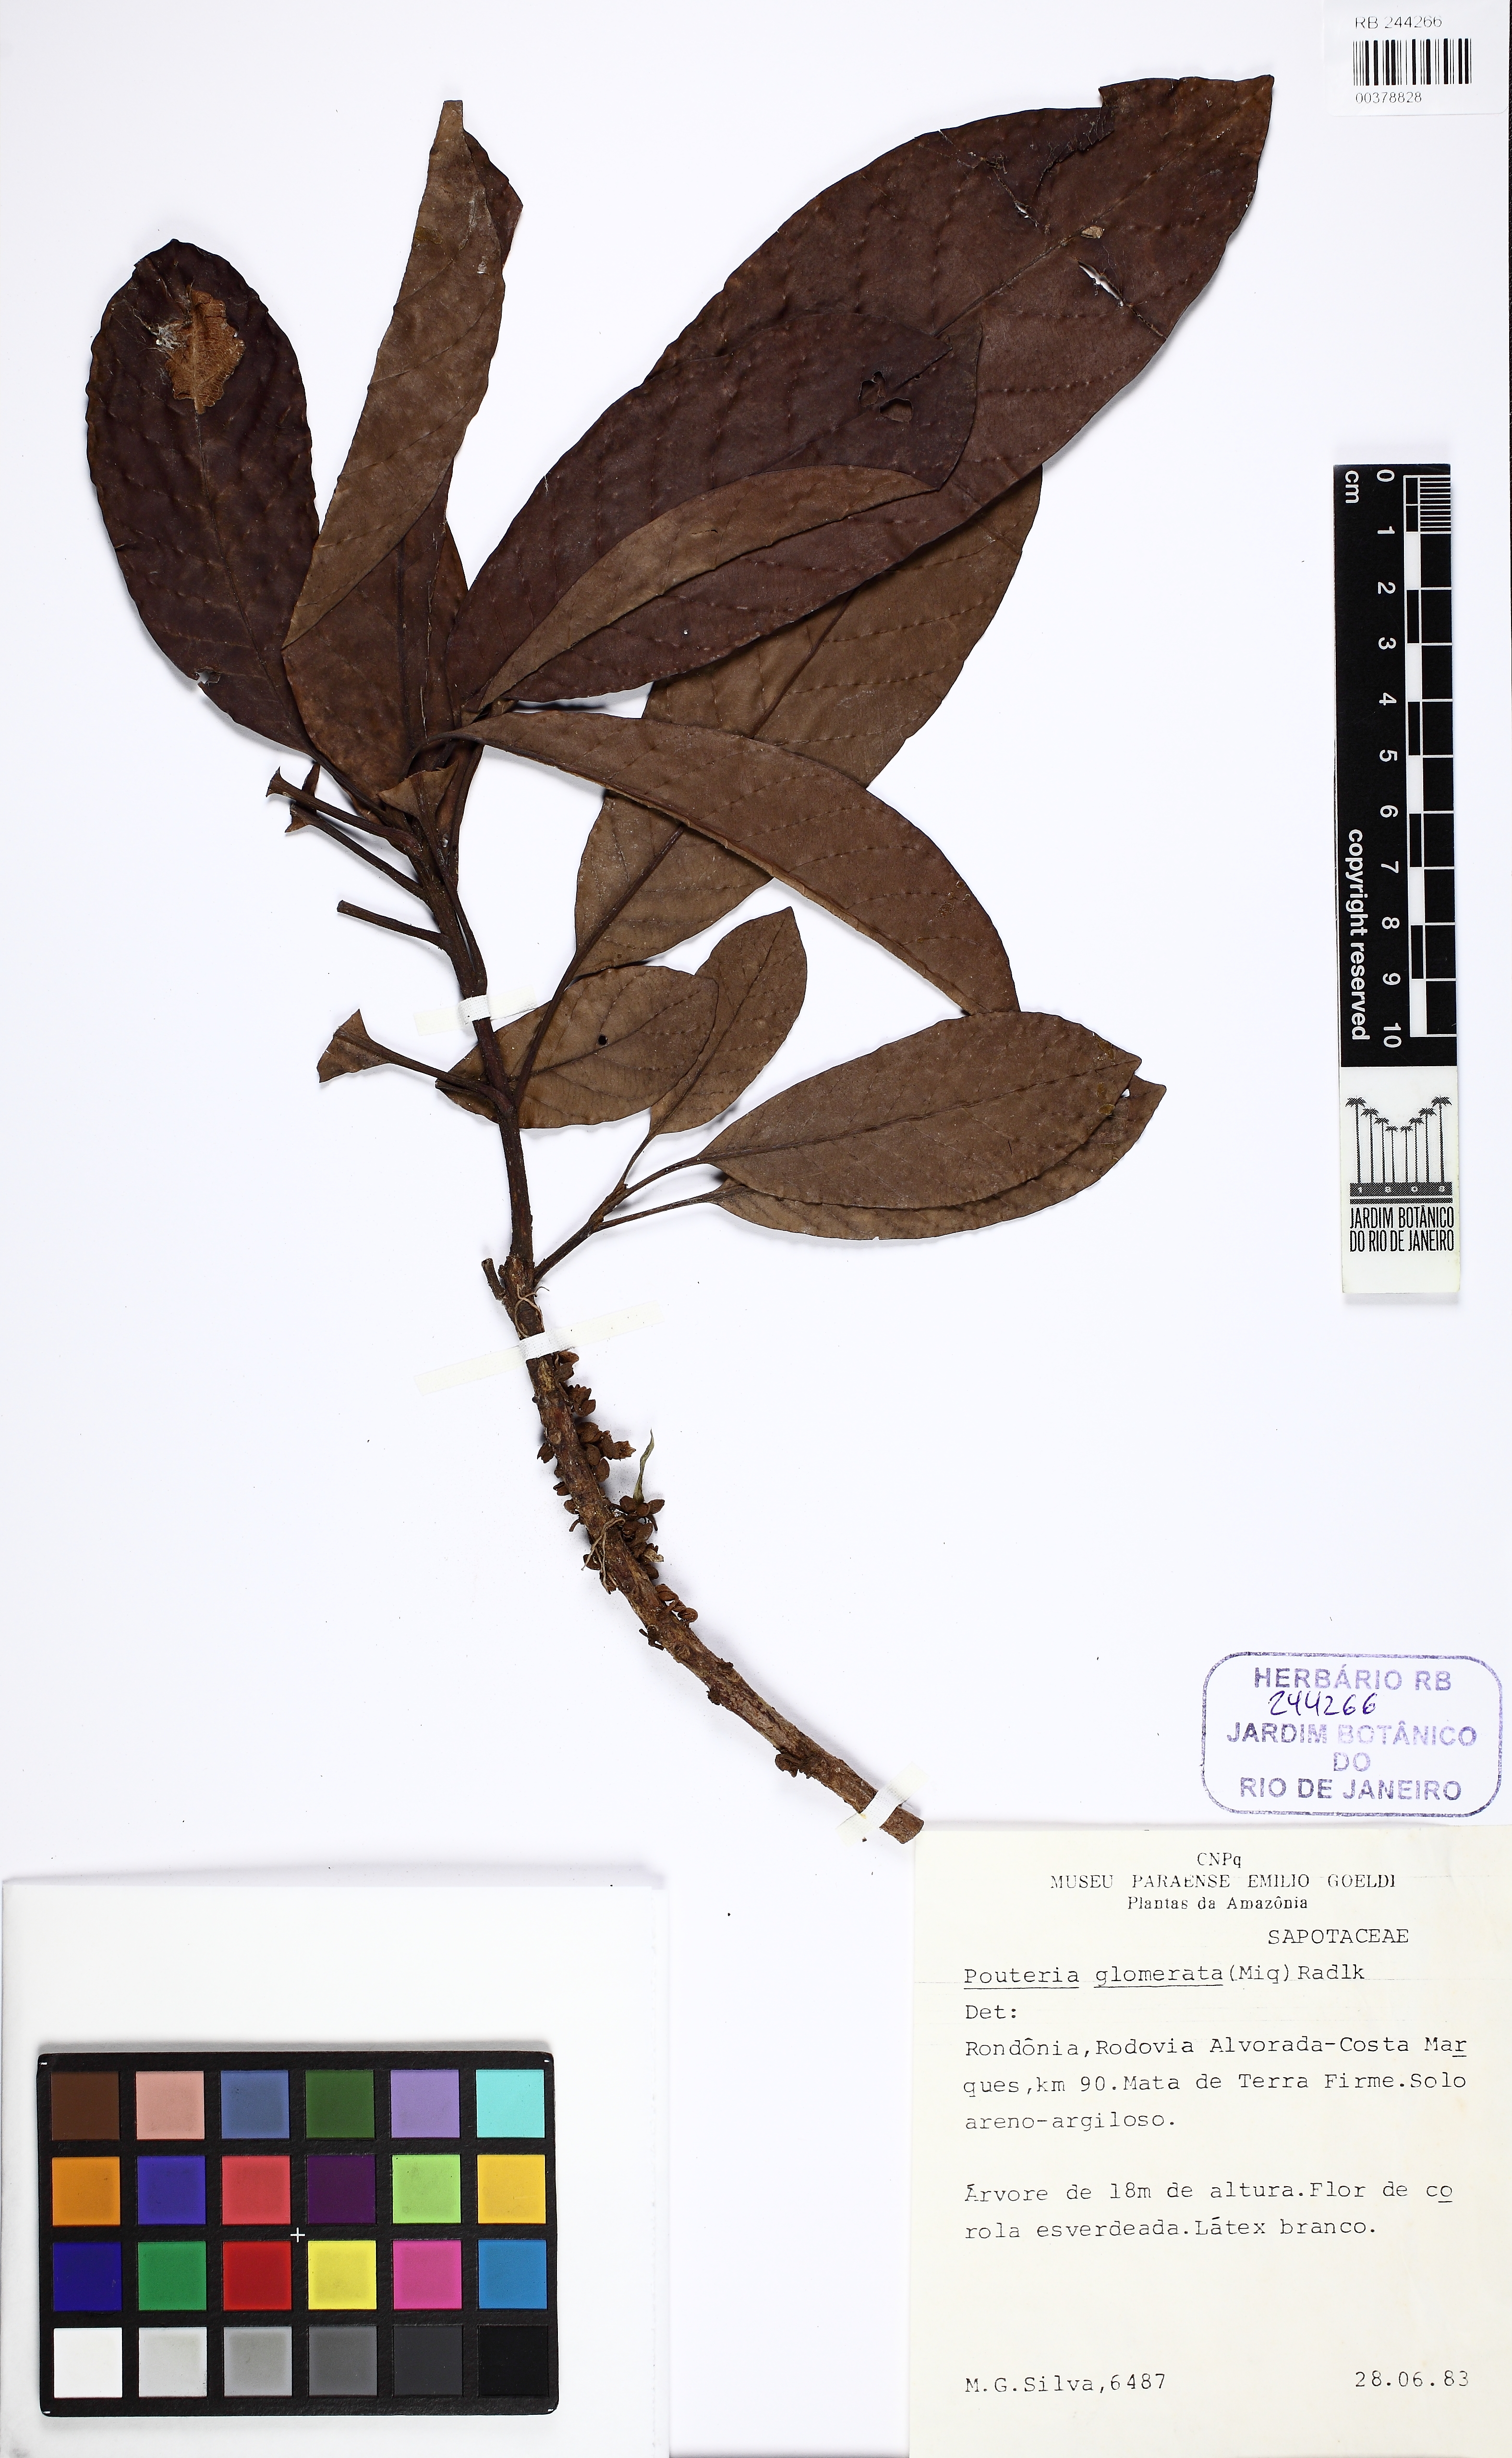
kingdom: Plantae
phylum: Tracheophyta
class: Magnoliopsida
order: Ericales
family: Sapotaceae
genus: Pouteria
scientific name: Pouteria glomerata
